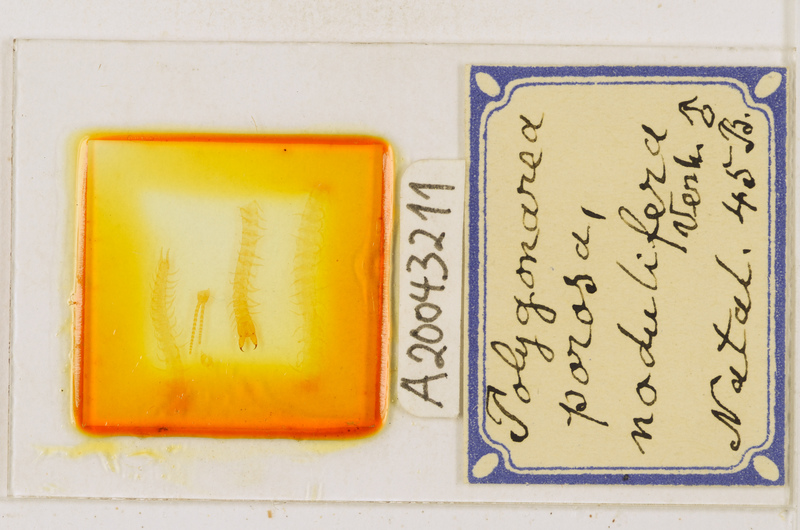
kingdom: Animalia
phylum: Arthropoda
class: Chilopoda
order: Geophilomorpha
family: Geophilidae
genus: Polygonarea
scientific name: Polygonarea africana
